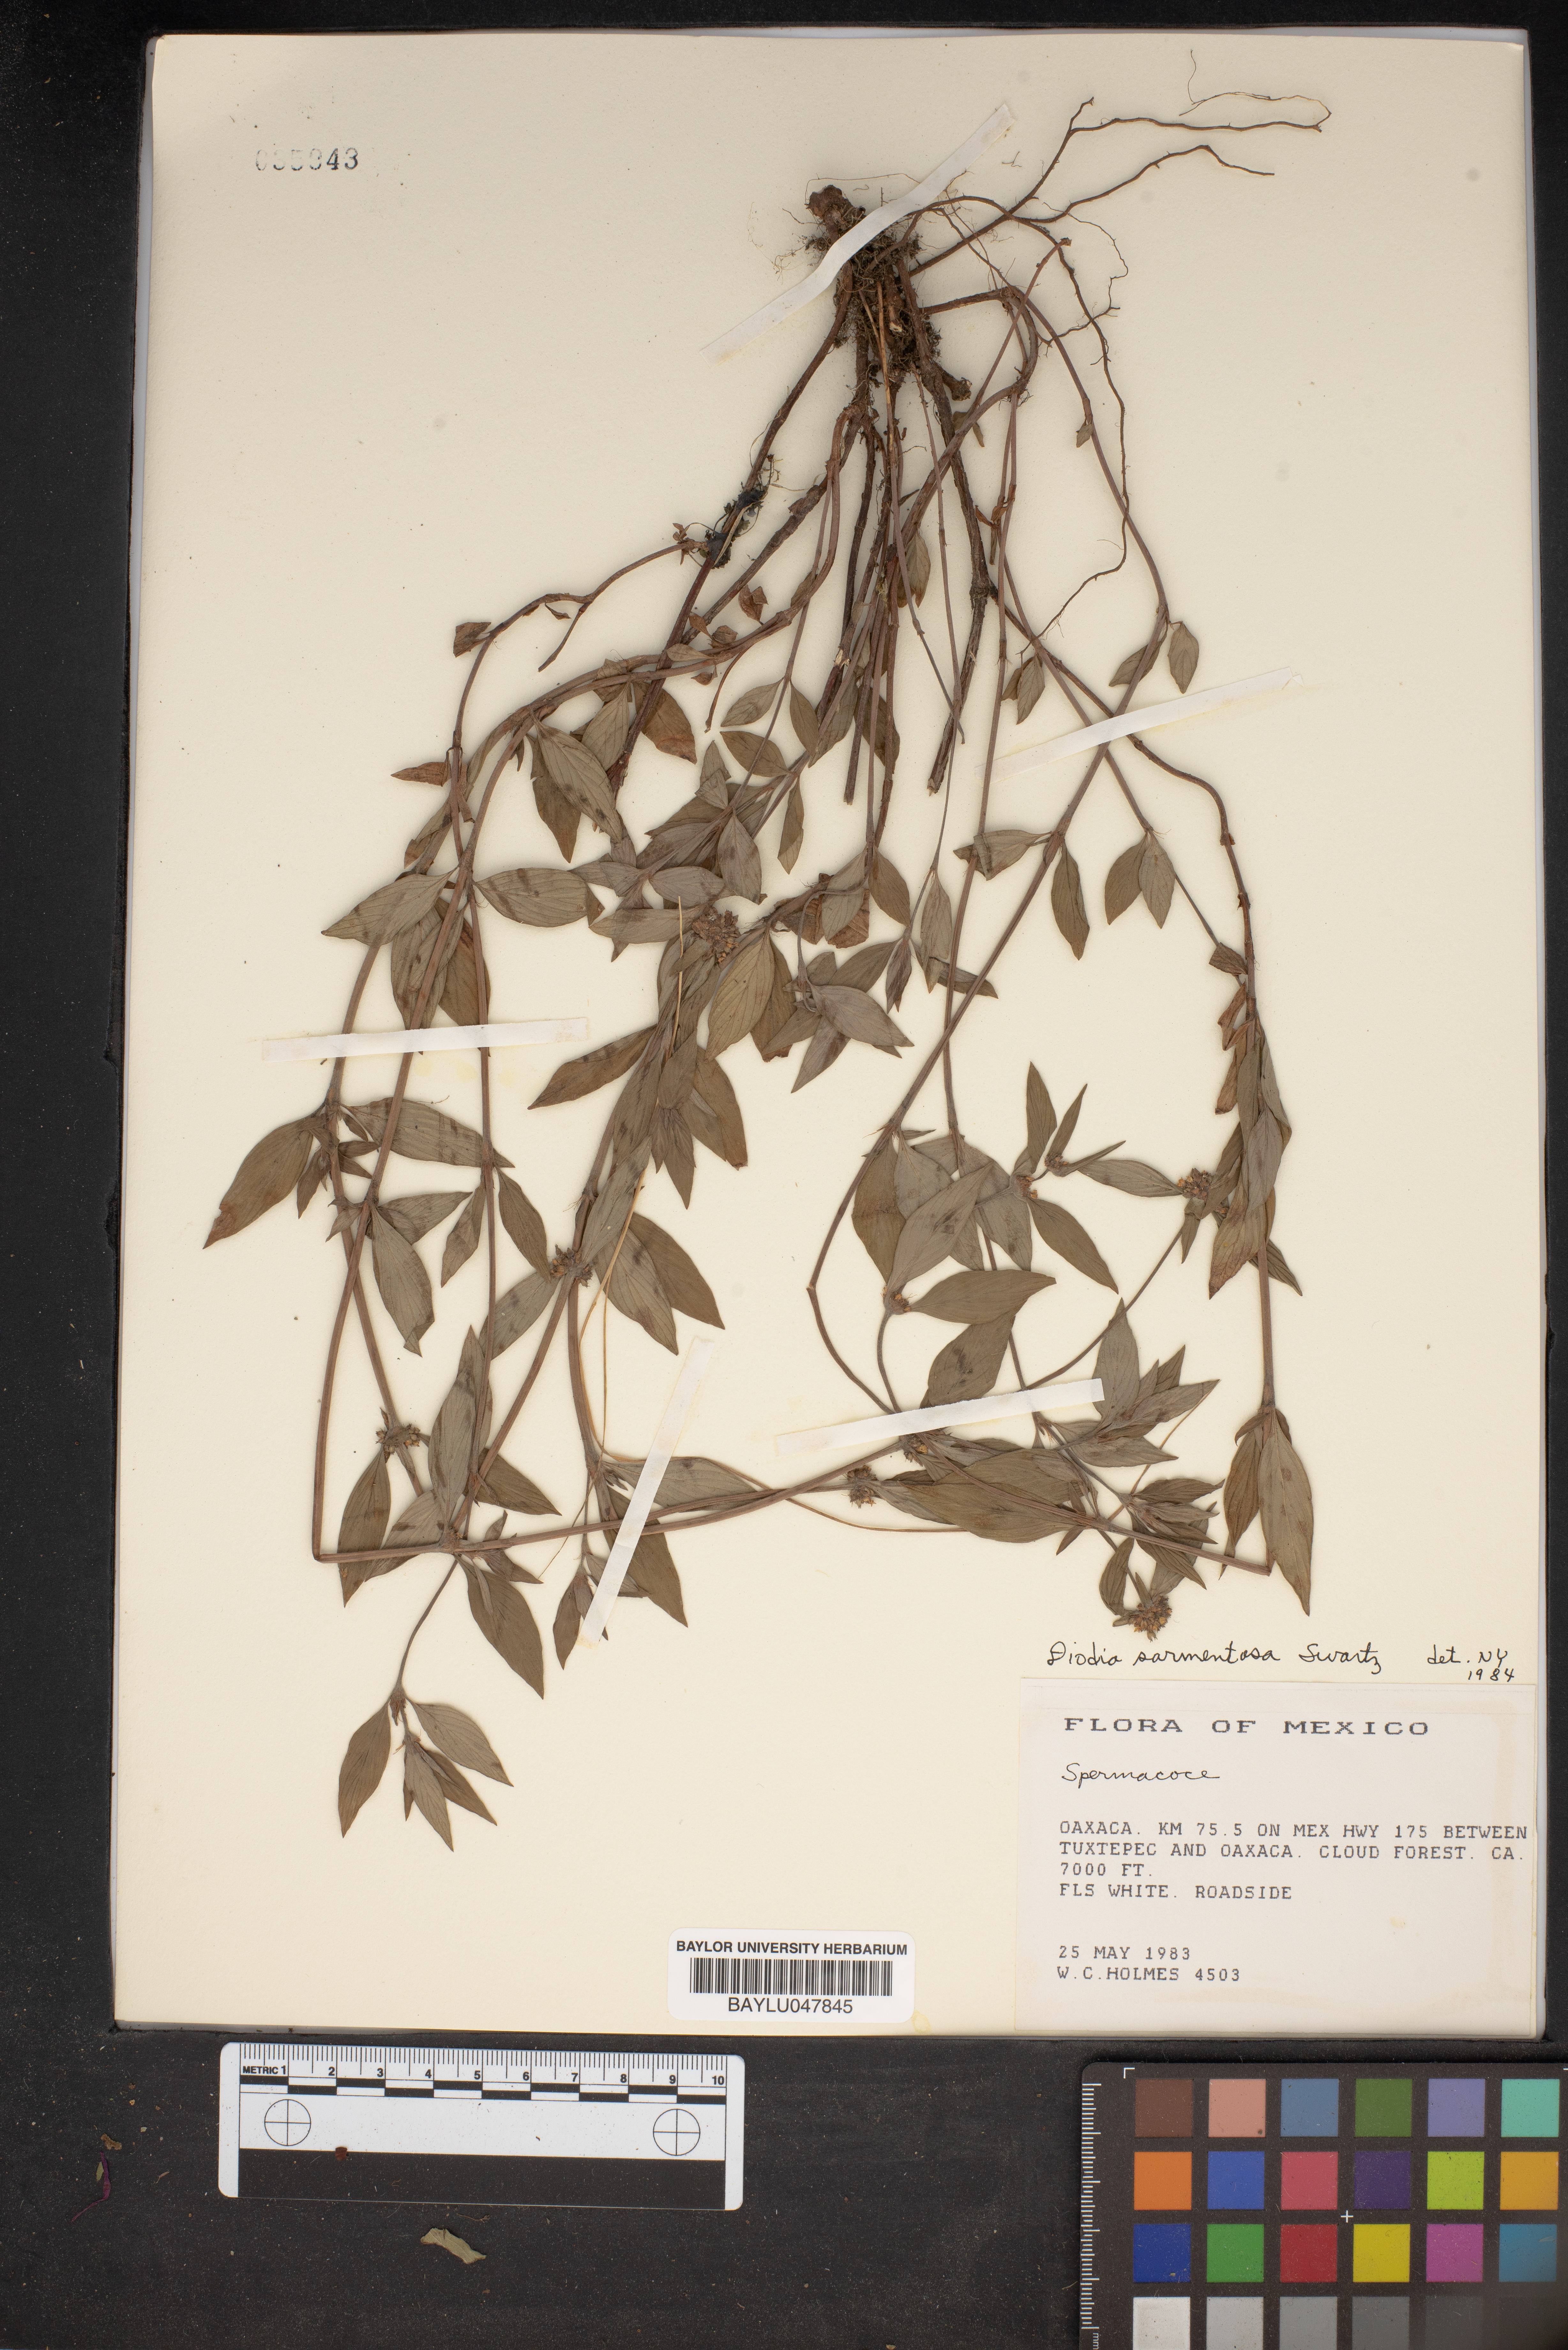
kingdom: Plantae
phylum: Tracheophyta
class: Magnoliopsida
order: Gentianales
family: Rubiaceae
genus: Hexasepalum
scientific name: Hexasepalum sarmentosum
